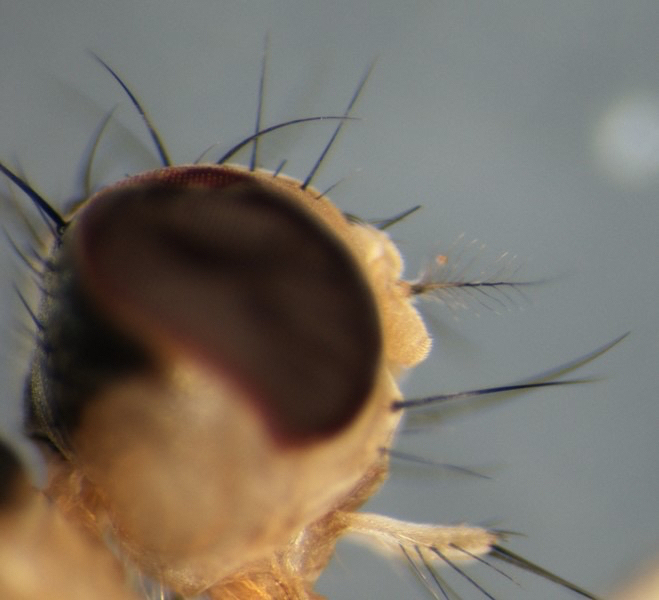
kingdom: Animalia
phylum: Arthropoda
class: Insecta
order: Diptera
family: Scathophagidae
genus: Cordilura
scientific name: Cordilura albipes
